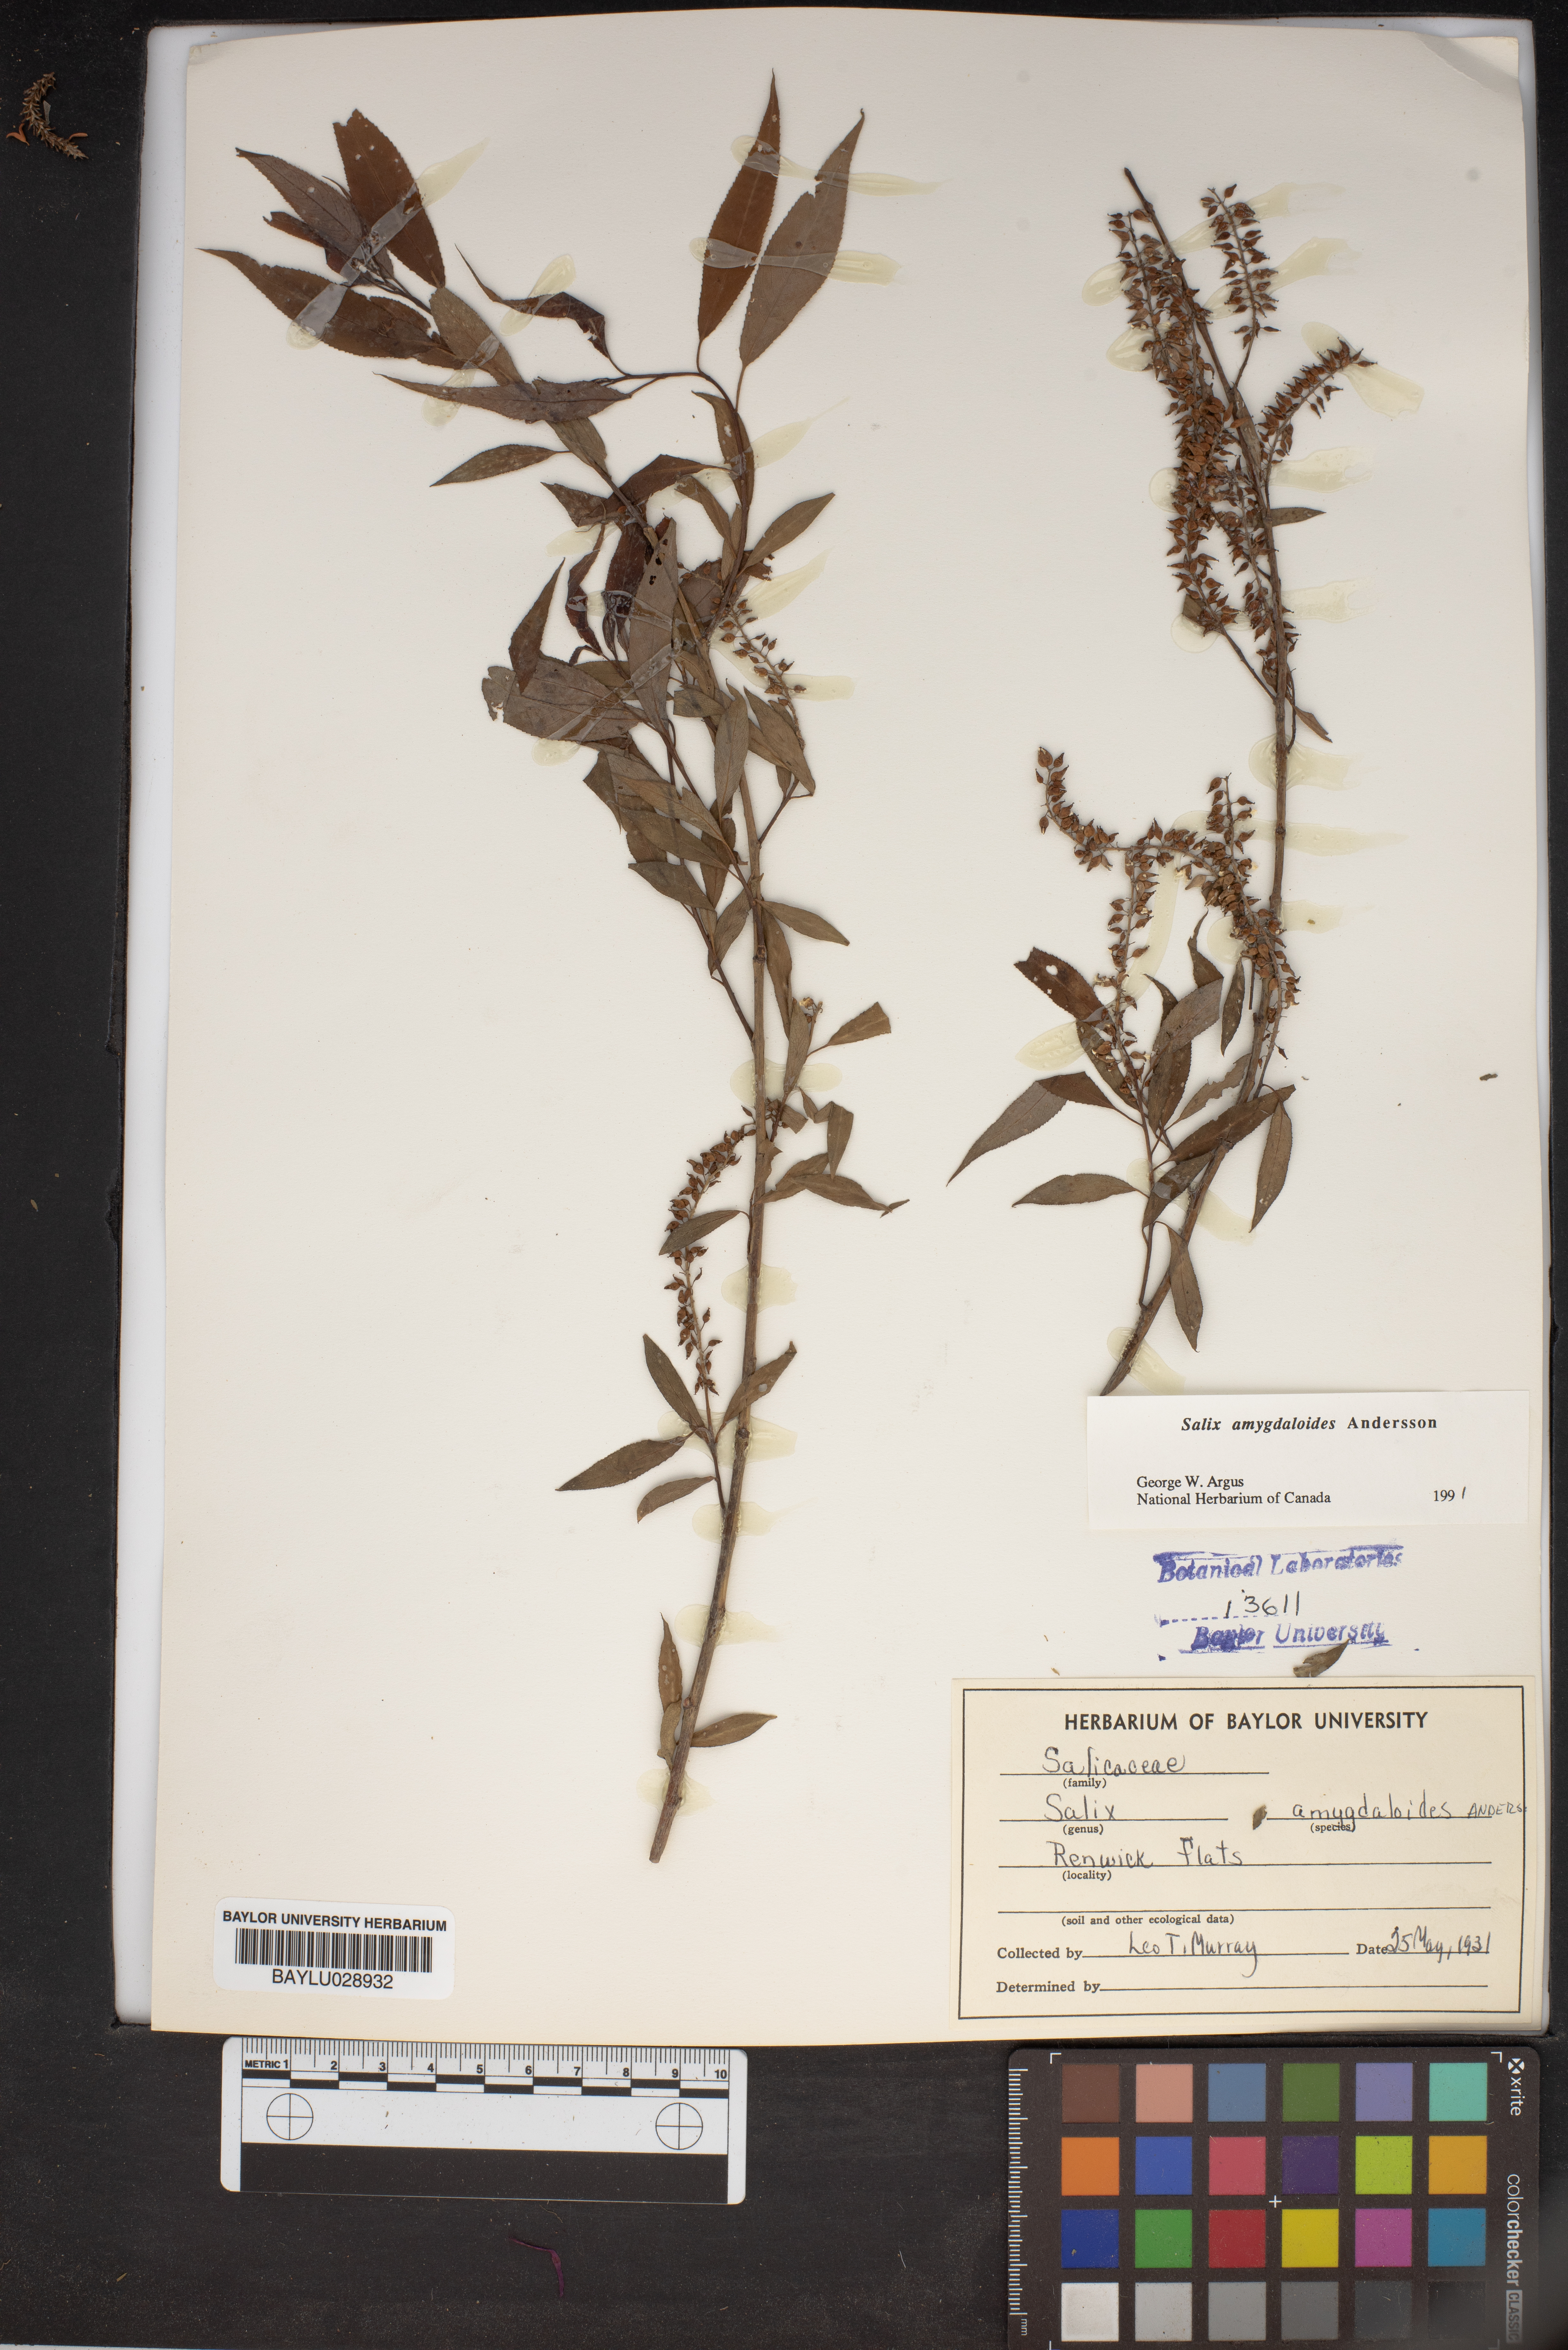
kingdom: Plantae
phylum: Tracheophyta
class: Magnoliopsida
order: Malpighiales
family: Salicaceae
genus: Salix
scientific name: Salix amygdaloides
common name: Peach leaf willow
